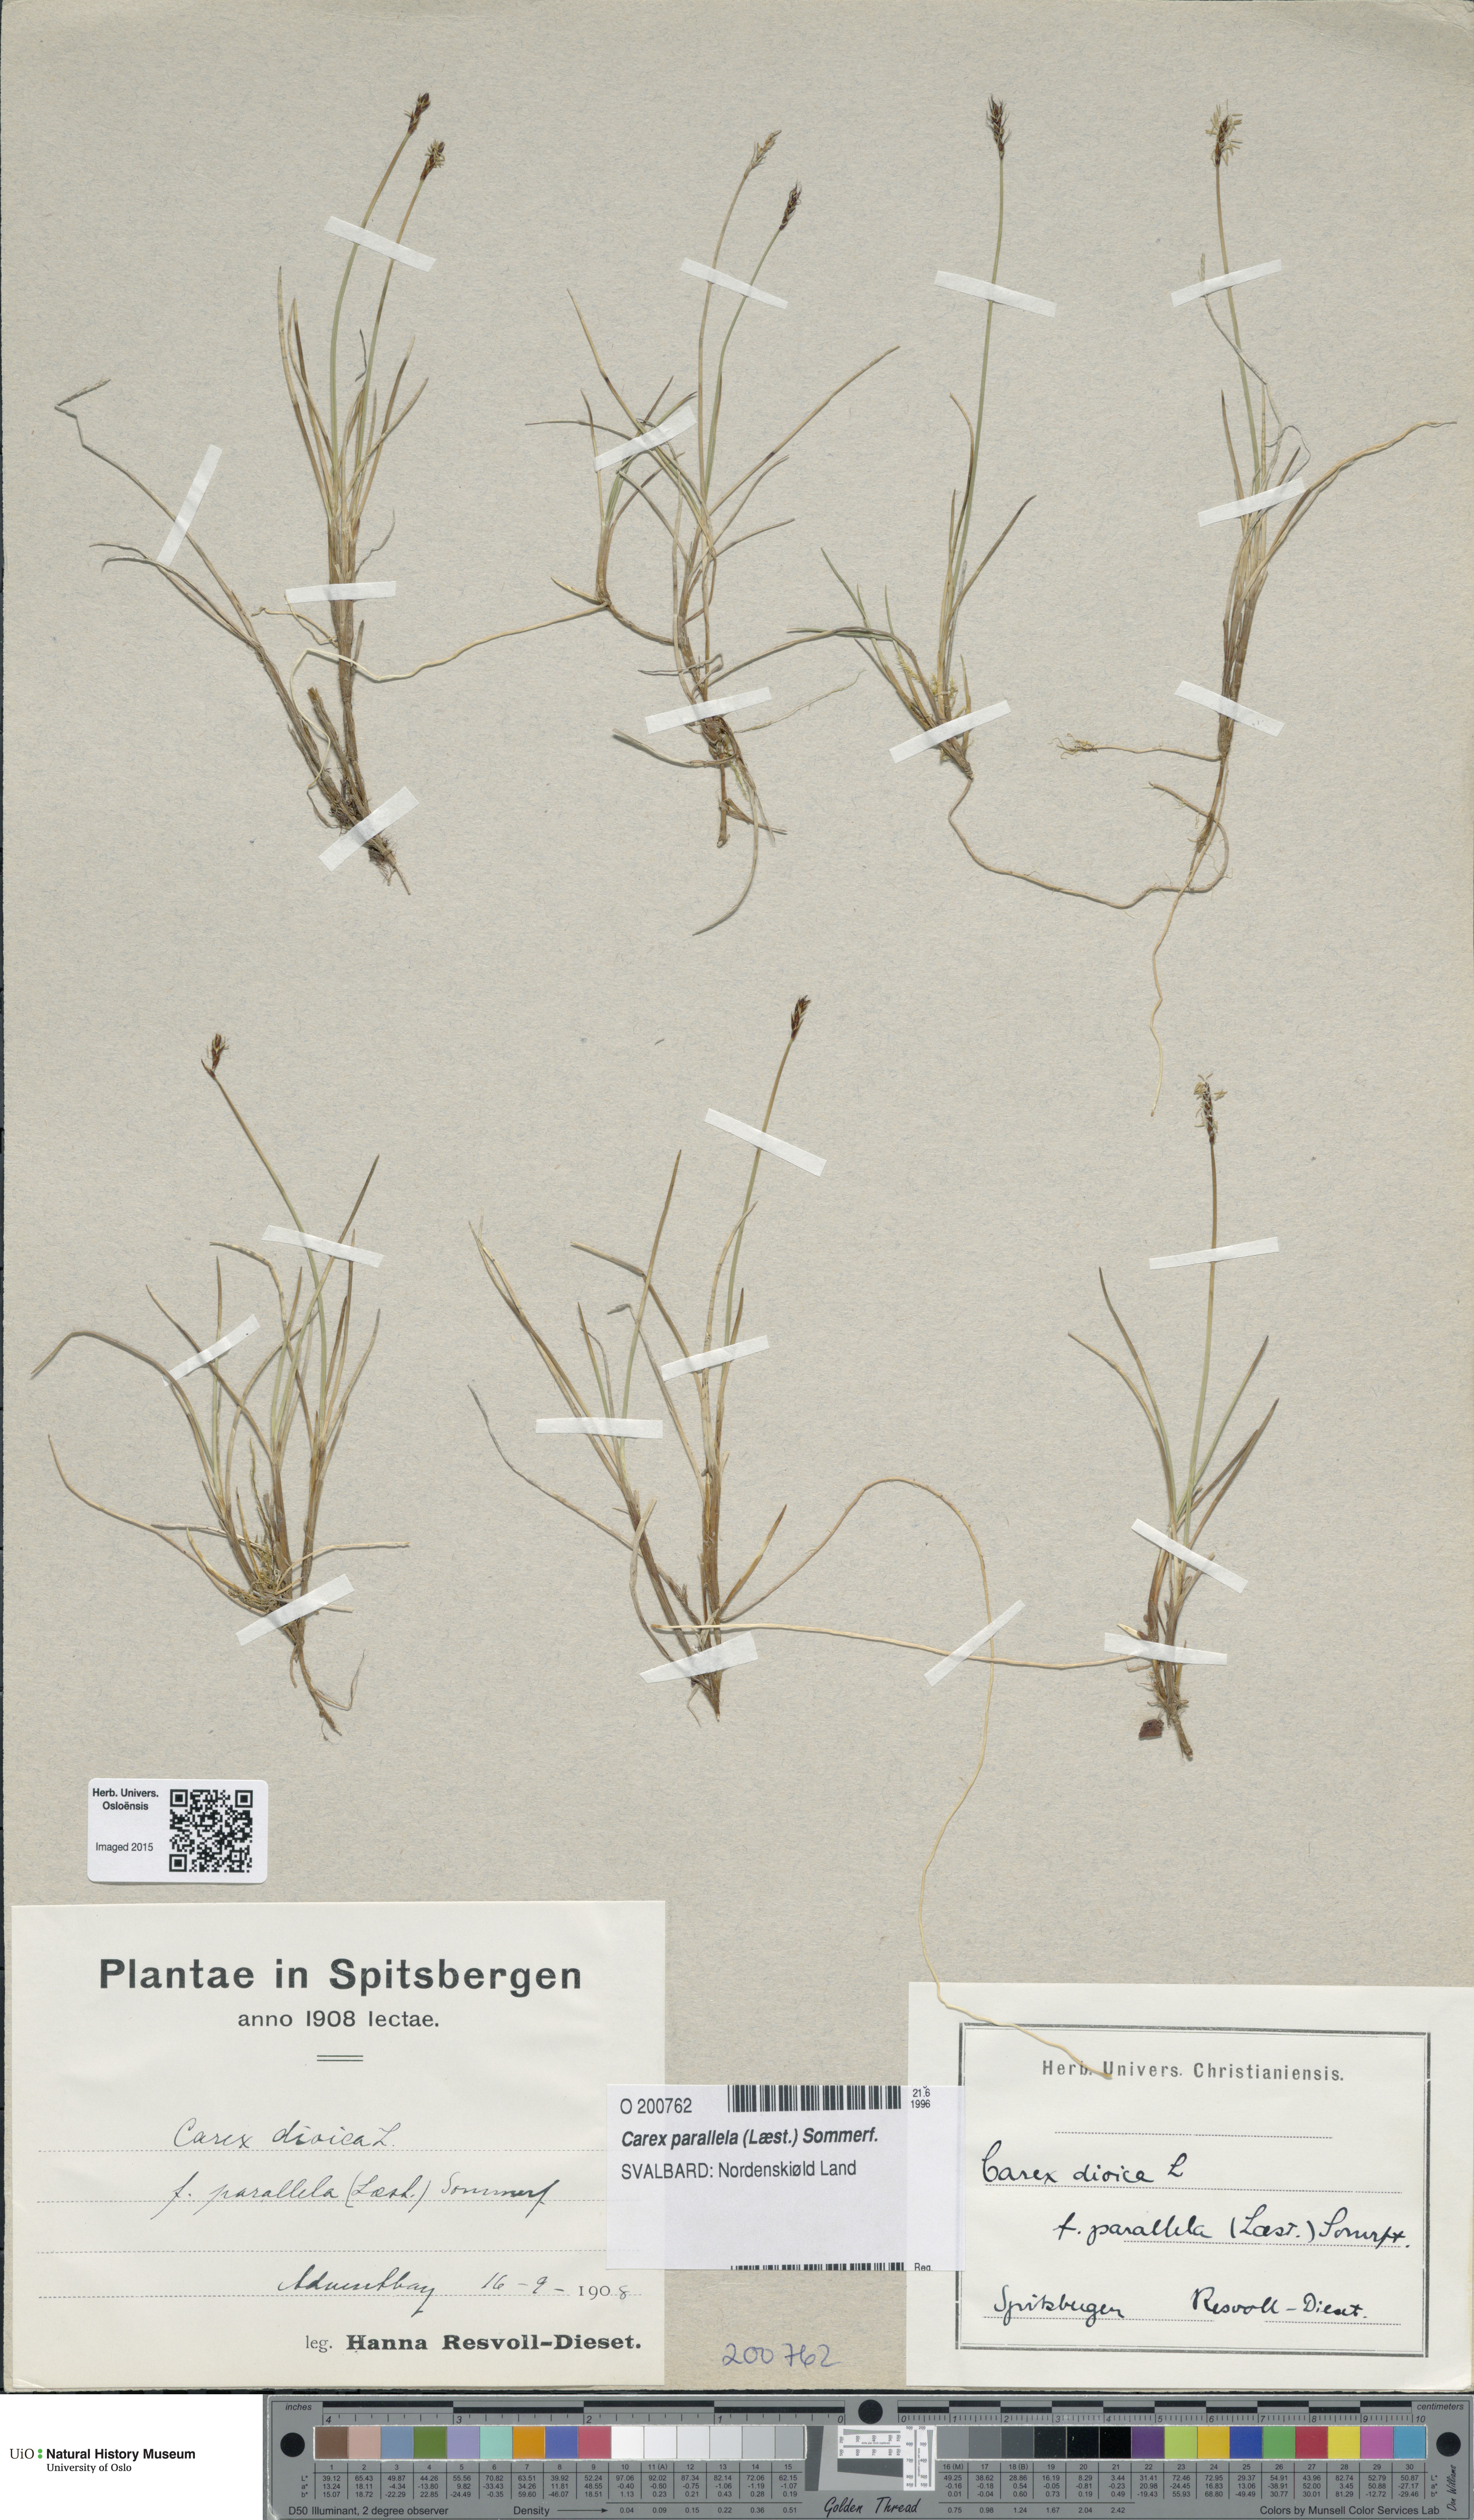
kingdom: Plantae
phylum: Tracheophyta
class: Liliopsida
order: Poales
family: Cyperaceae
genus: Carex
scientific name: Carex parallela
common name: Parallel sedge
